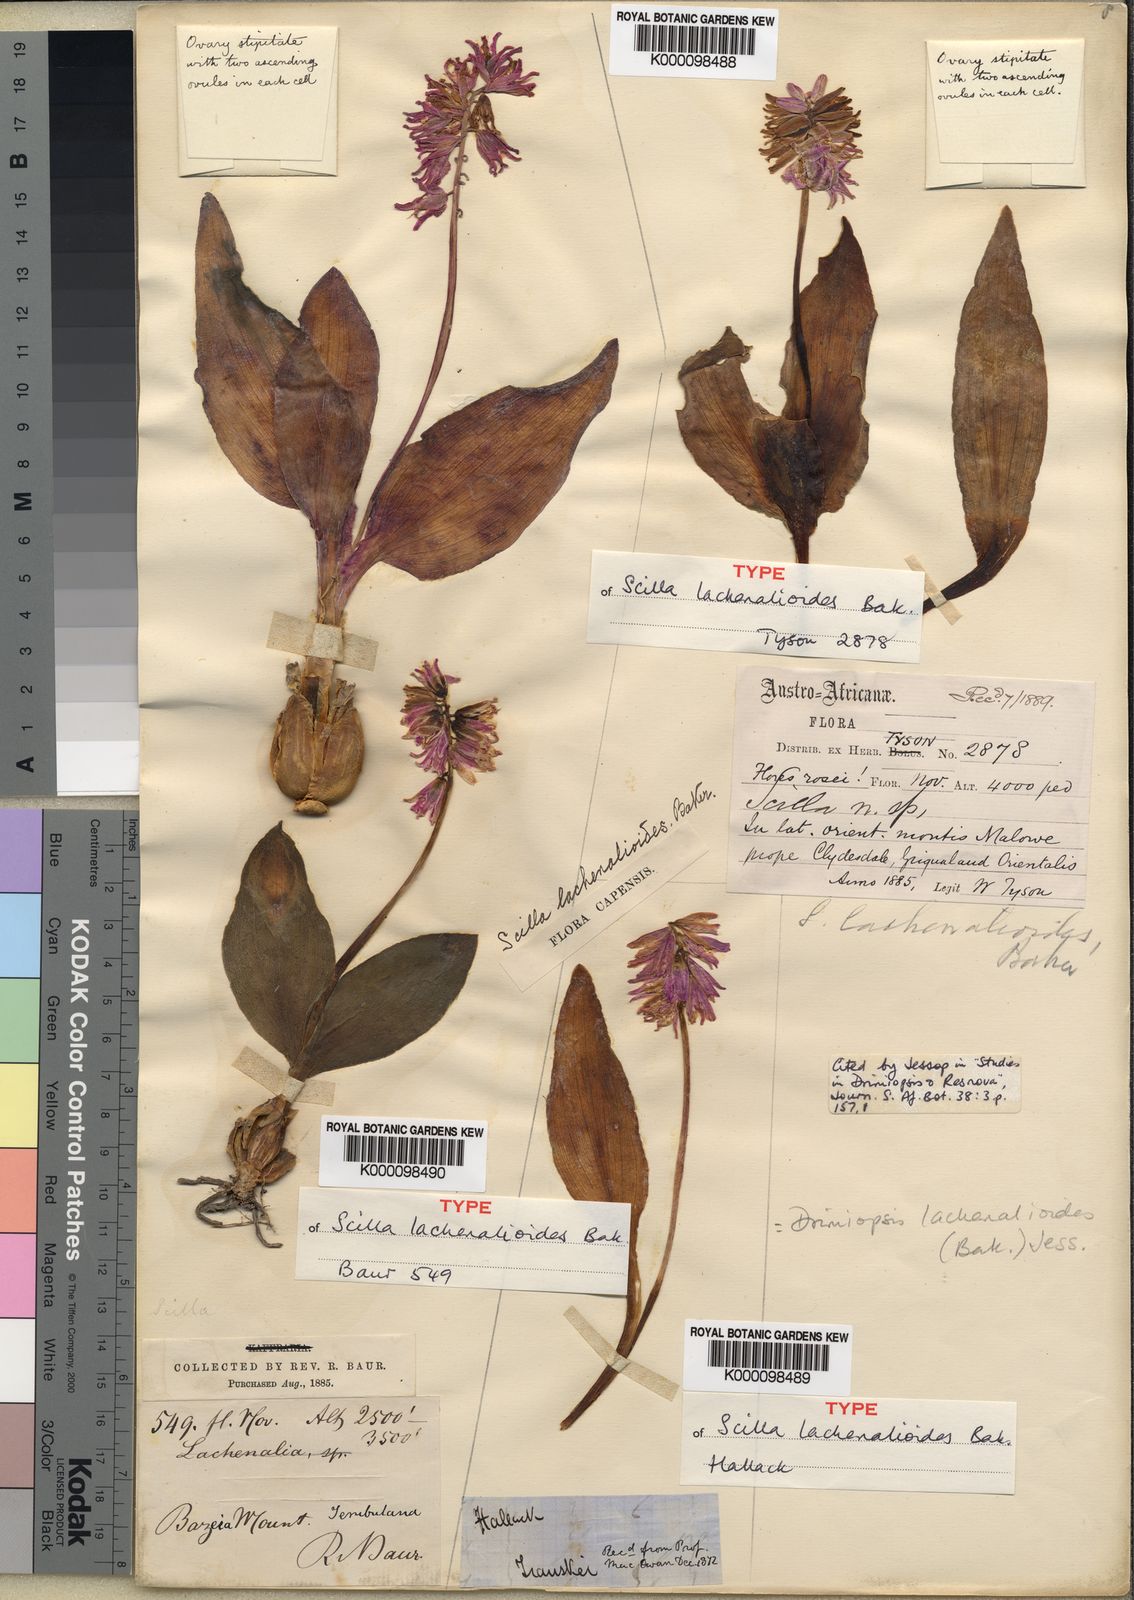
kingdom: Plantae
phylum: Tracheophyta
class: Liliopsida
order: Asparagales
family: Asparagaceae
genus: Resnova
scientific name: Resnova lachenalioides
